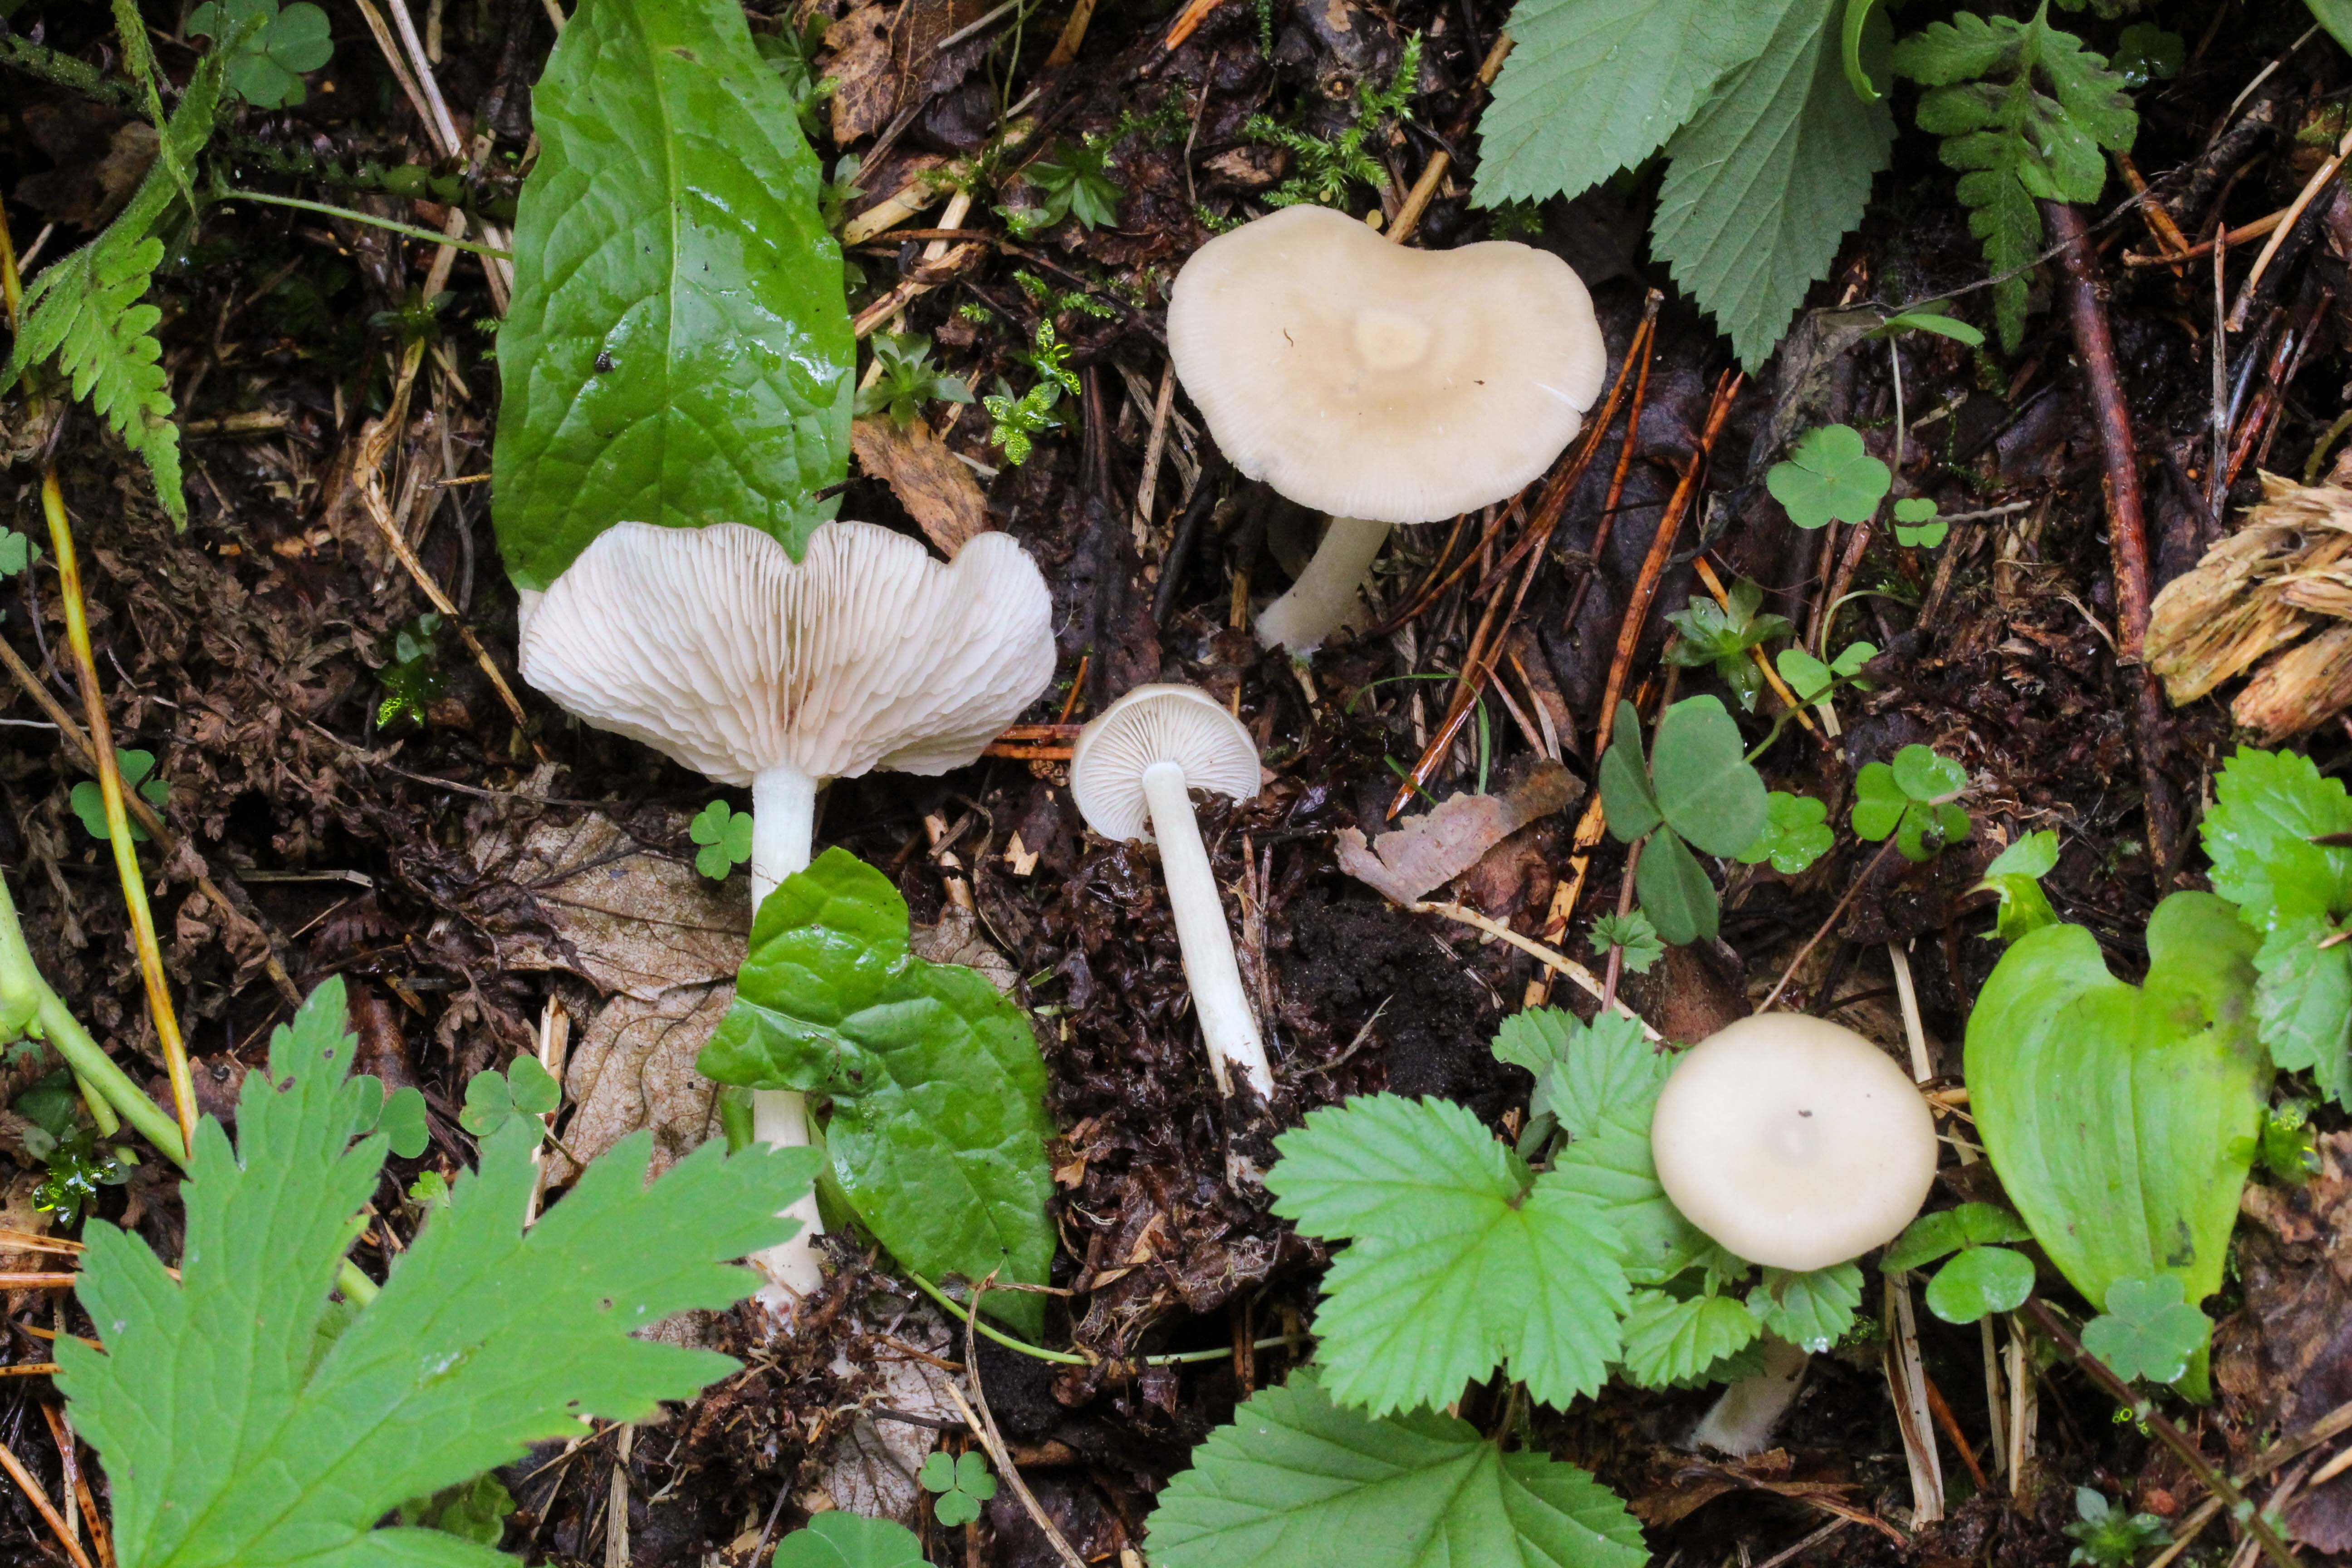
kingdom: Fungi
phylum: Basidiomycota
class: Agaricomycetes
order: Agaricales
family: Entolomataceae
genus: Entoloma
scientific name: Entoloma
